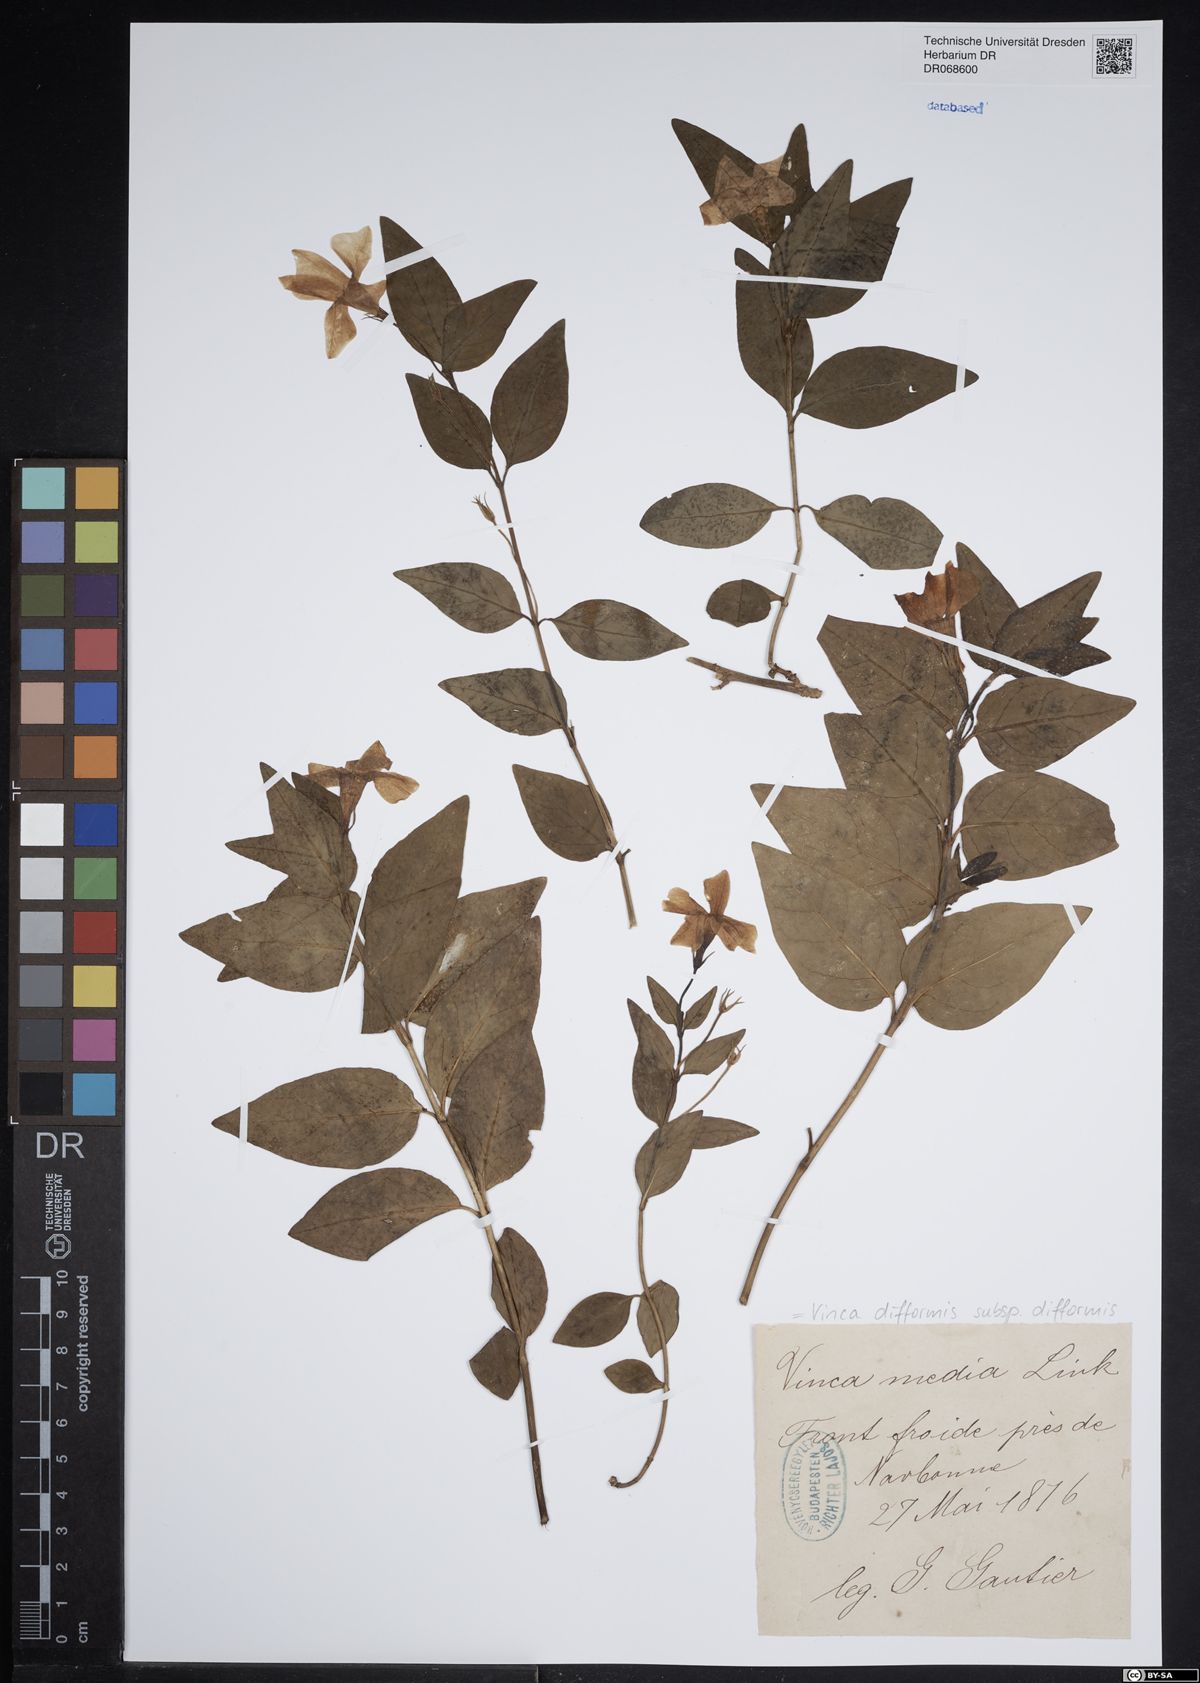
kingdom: Plantae
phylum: Tracheophyta
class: Magnoliopsida
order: Gentianales
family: Apocynaceae
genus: Vinca
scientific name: Vinca difformis
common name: Intermediate periwinkle
